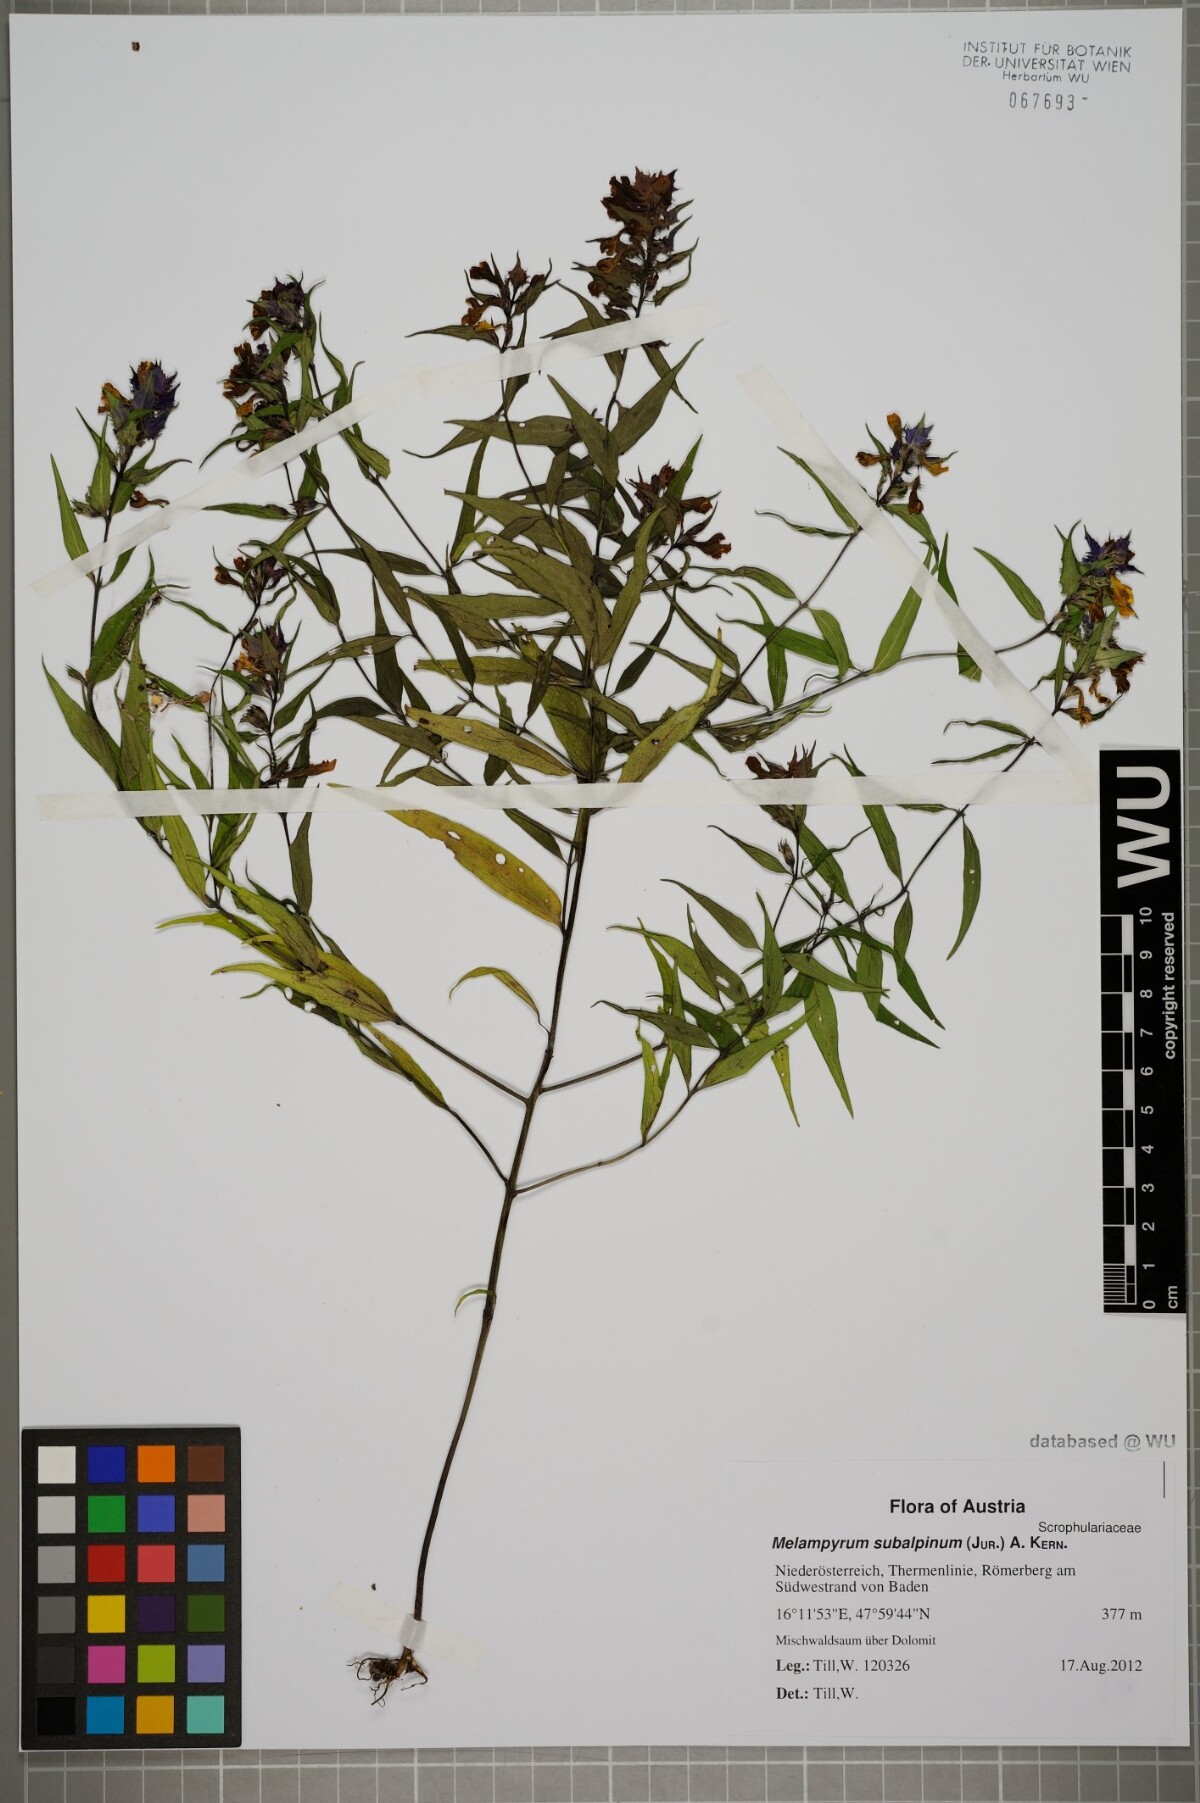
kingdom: Plantae
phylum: Tracheophyta
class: Magnoliopsida
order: Lamiales
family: Orobanchaceae
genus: Melampyrum
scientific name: Melampyrum subalpinum
